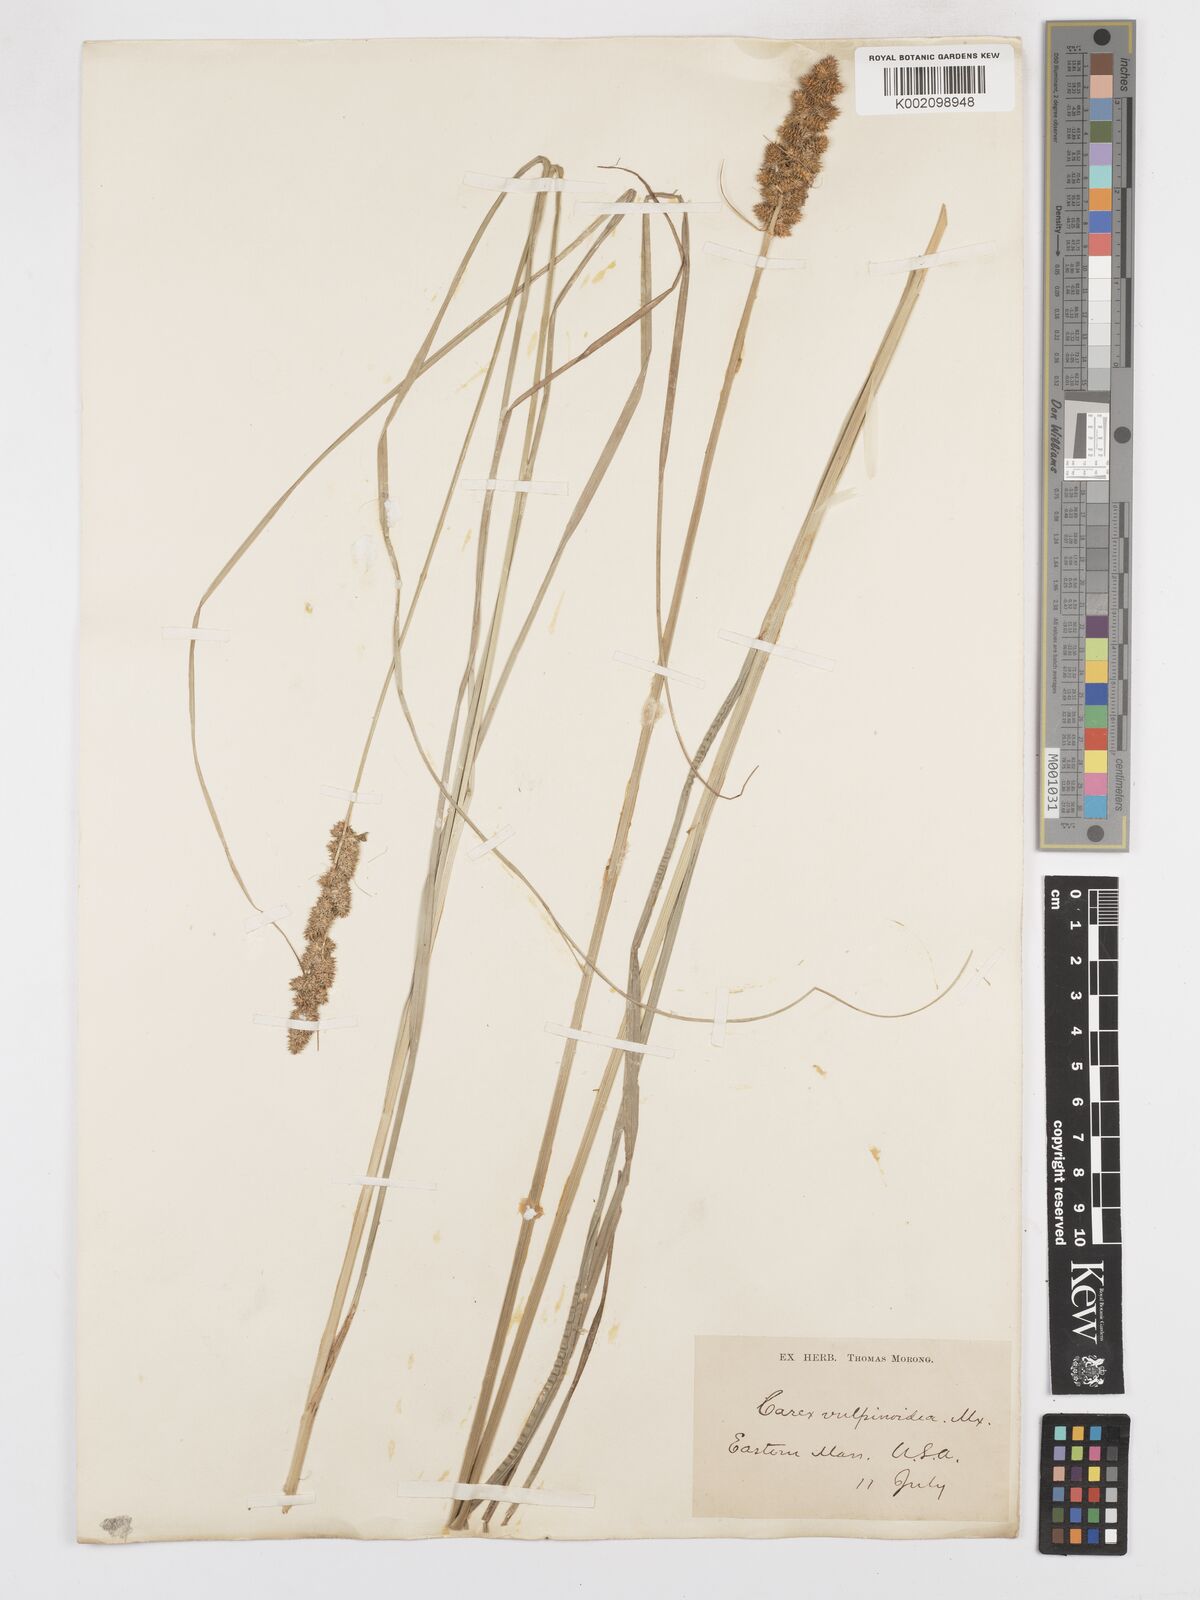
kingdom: Plantae
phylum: Tracheophyta
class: Liliopsida
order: Poales
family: Cyperaceae
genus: Carex
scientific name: Carex vulpinoidea
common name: American fox-sedge
